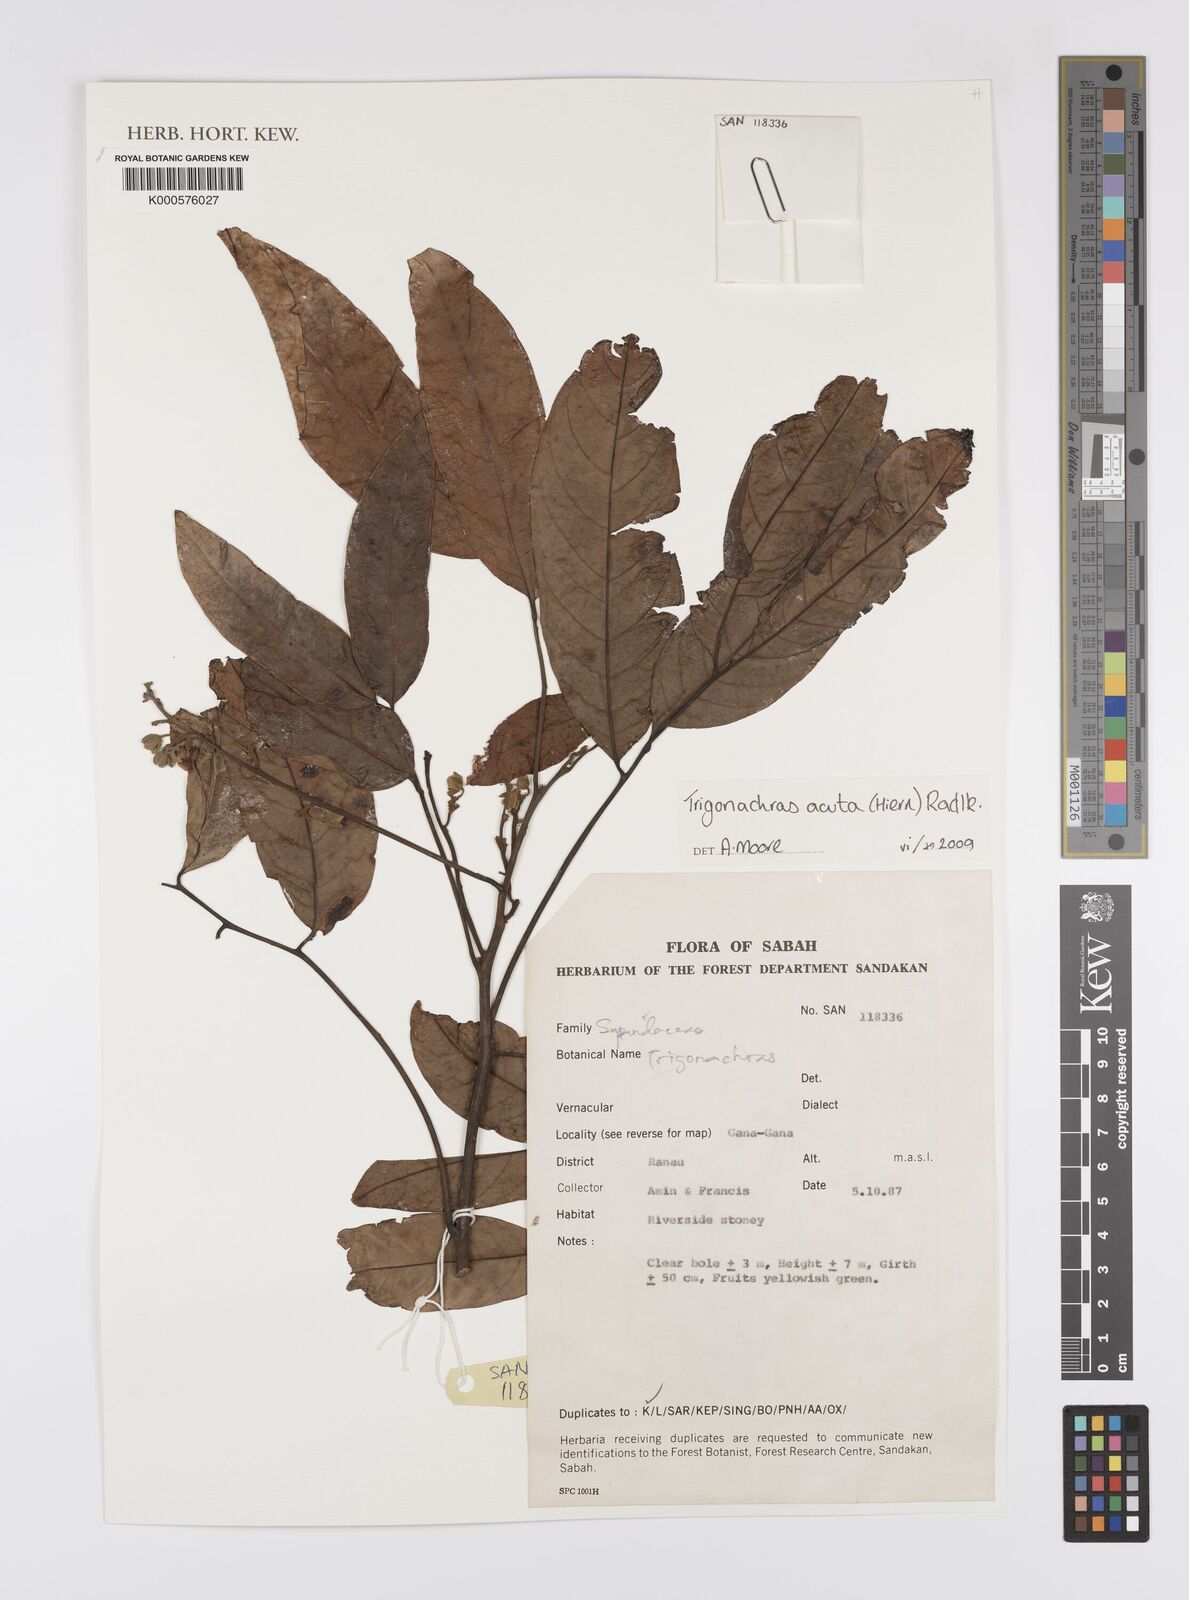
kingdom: Plantae
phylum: Tracheophyta
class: Magnoliopsida
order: Sapindales
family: Sapindaceae
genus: Trigonachras
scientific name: Trigonachras acuta
